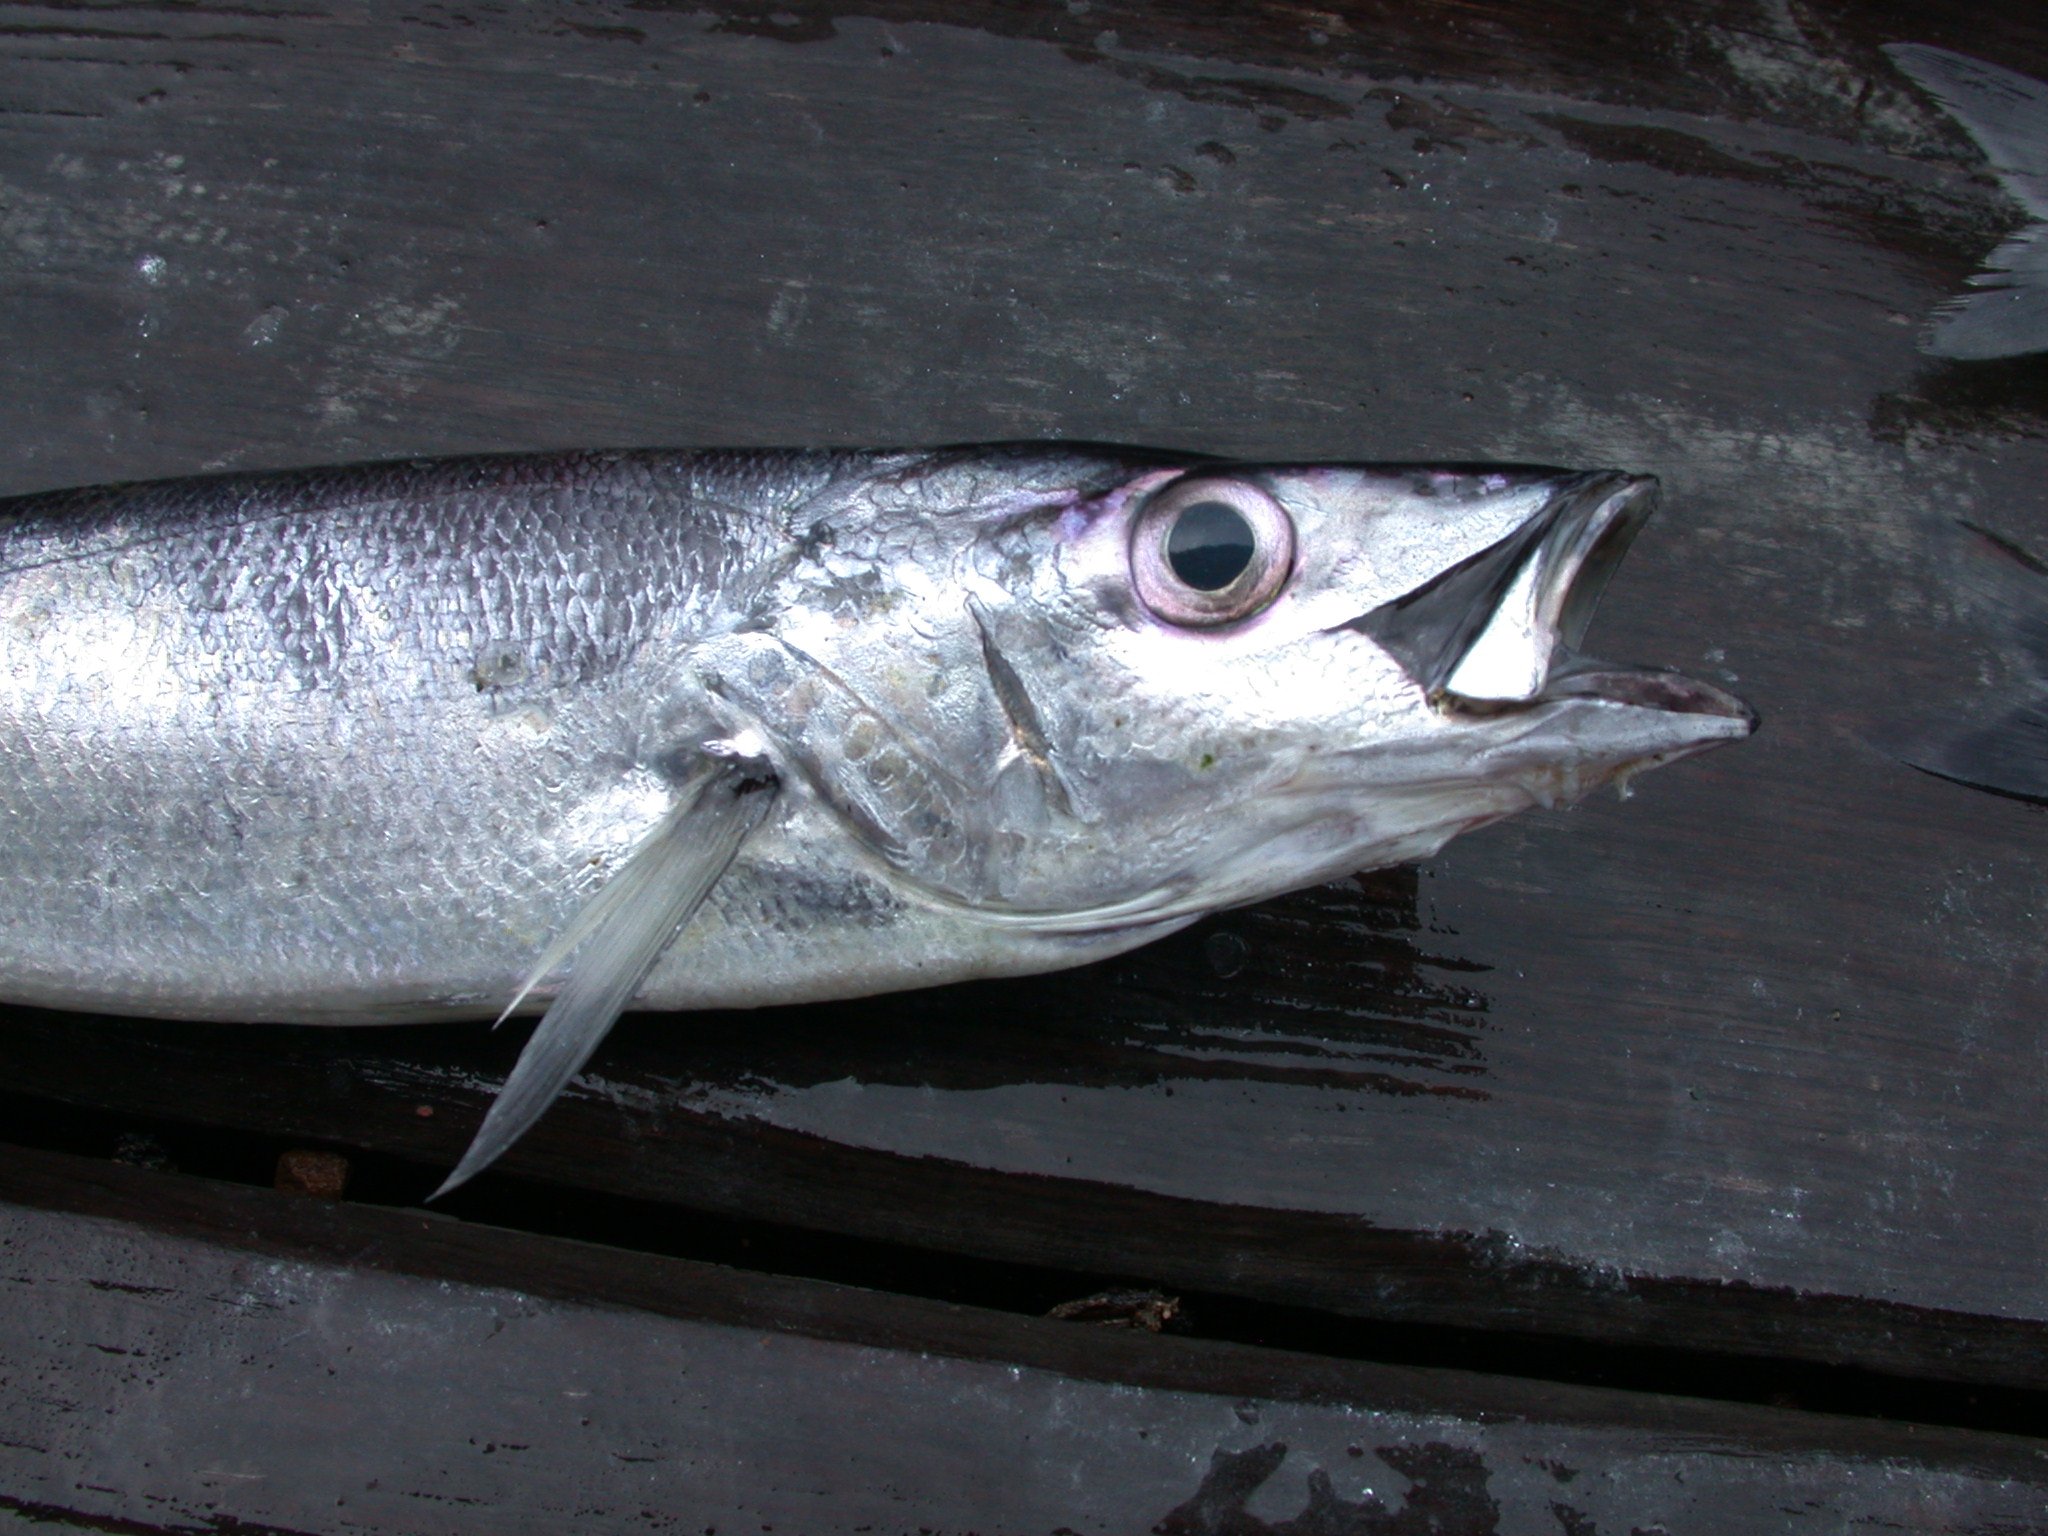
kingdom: Animalia
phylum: Chordata
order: Perciformes
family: Latidae
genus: Lates
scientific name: Lates stappersii
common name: Sleek lates
